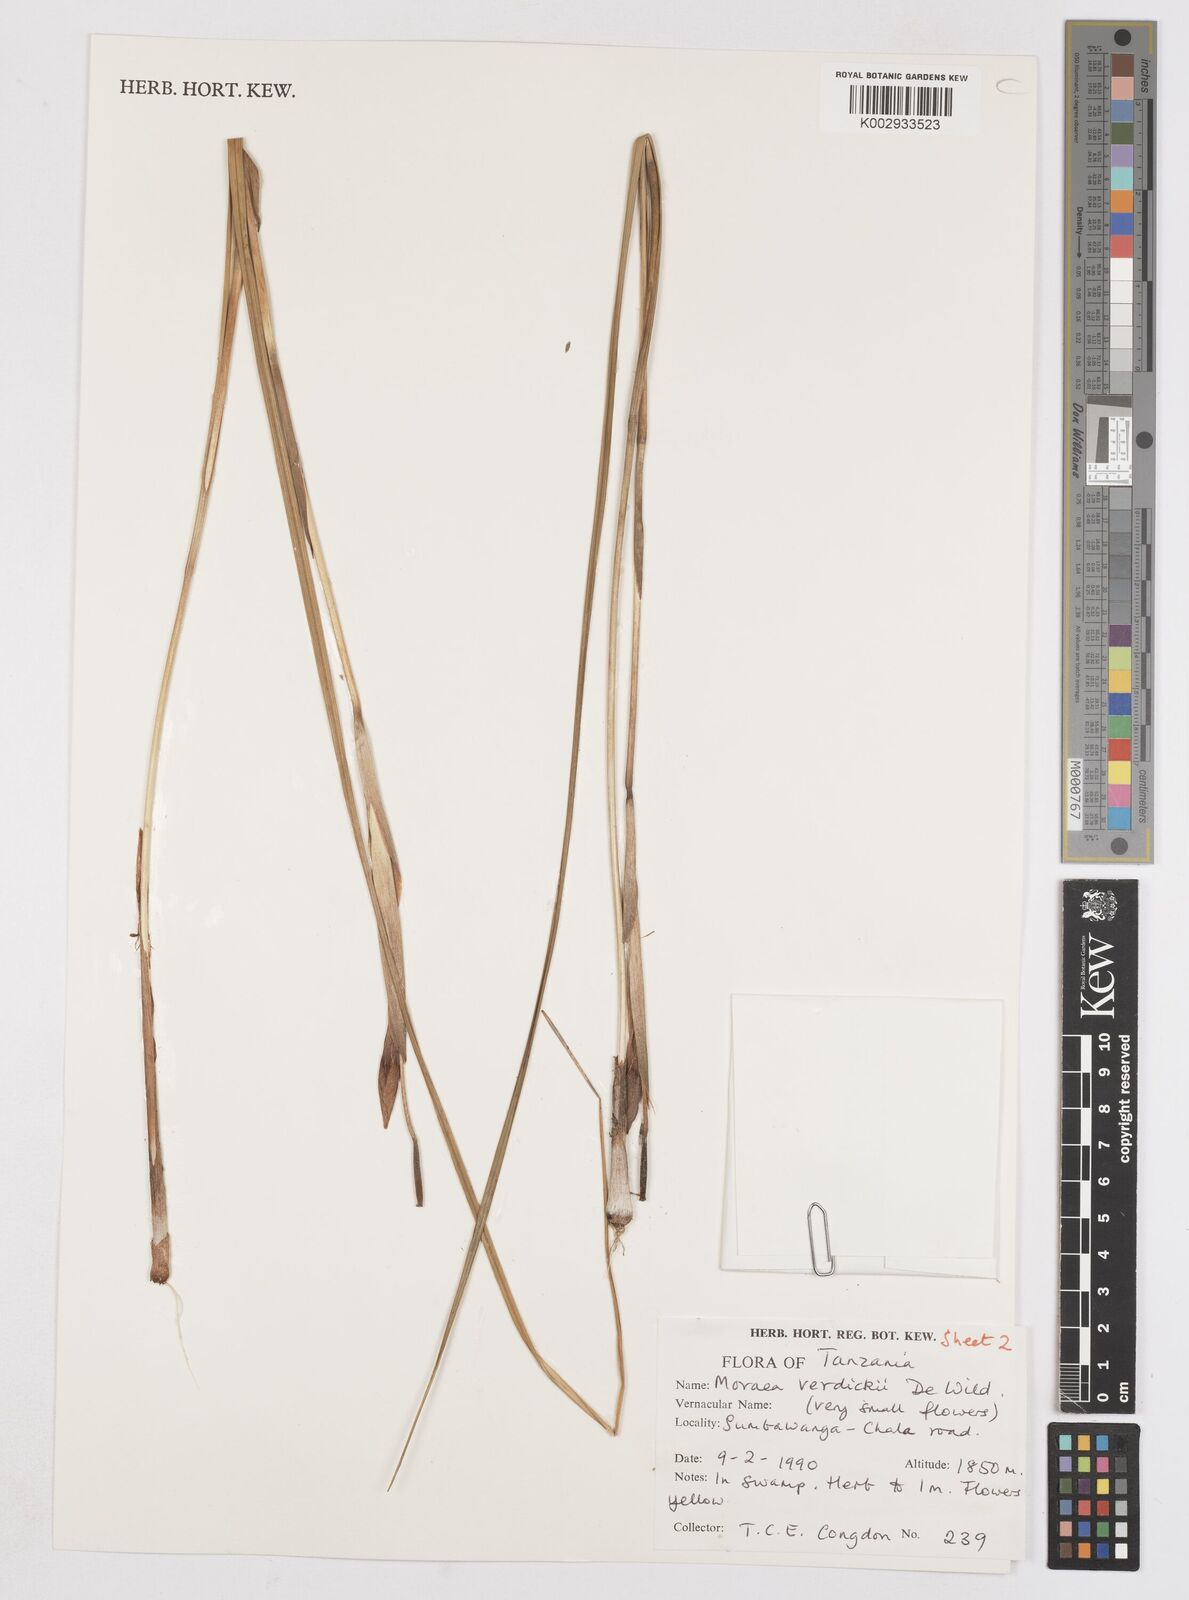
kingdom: Plantae
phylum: Tracheophyta
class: Liliopsida
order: Asparagales
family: Iridaceae
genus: Moraea
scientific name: Moraea bella
